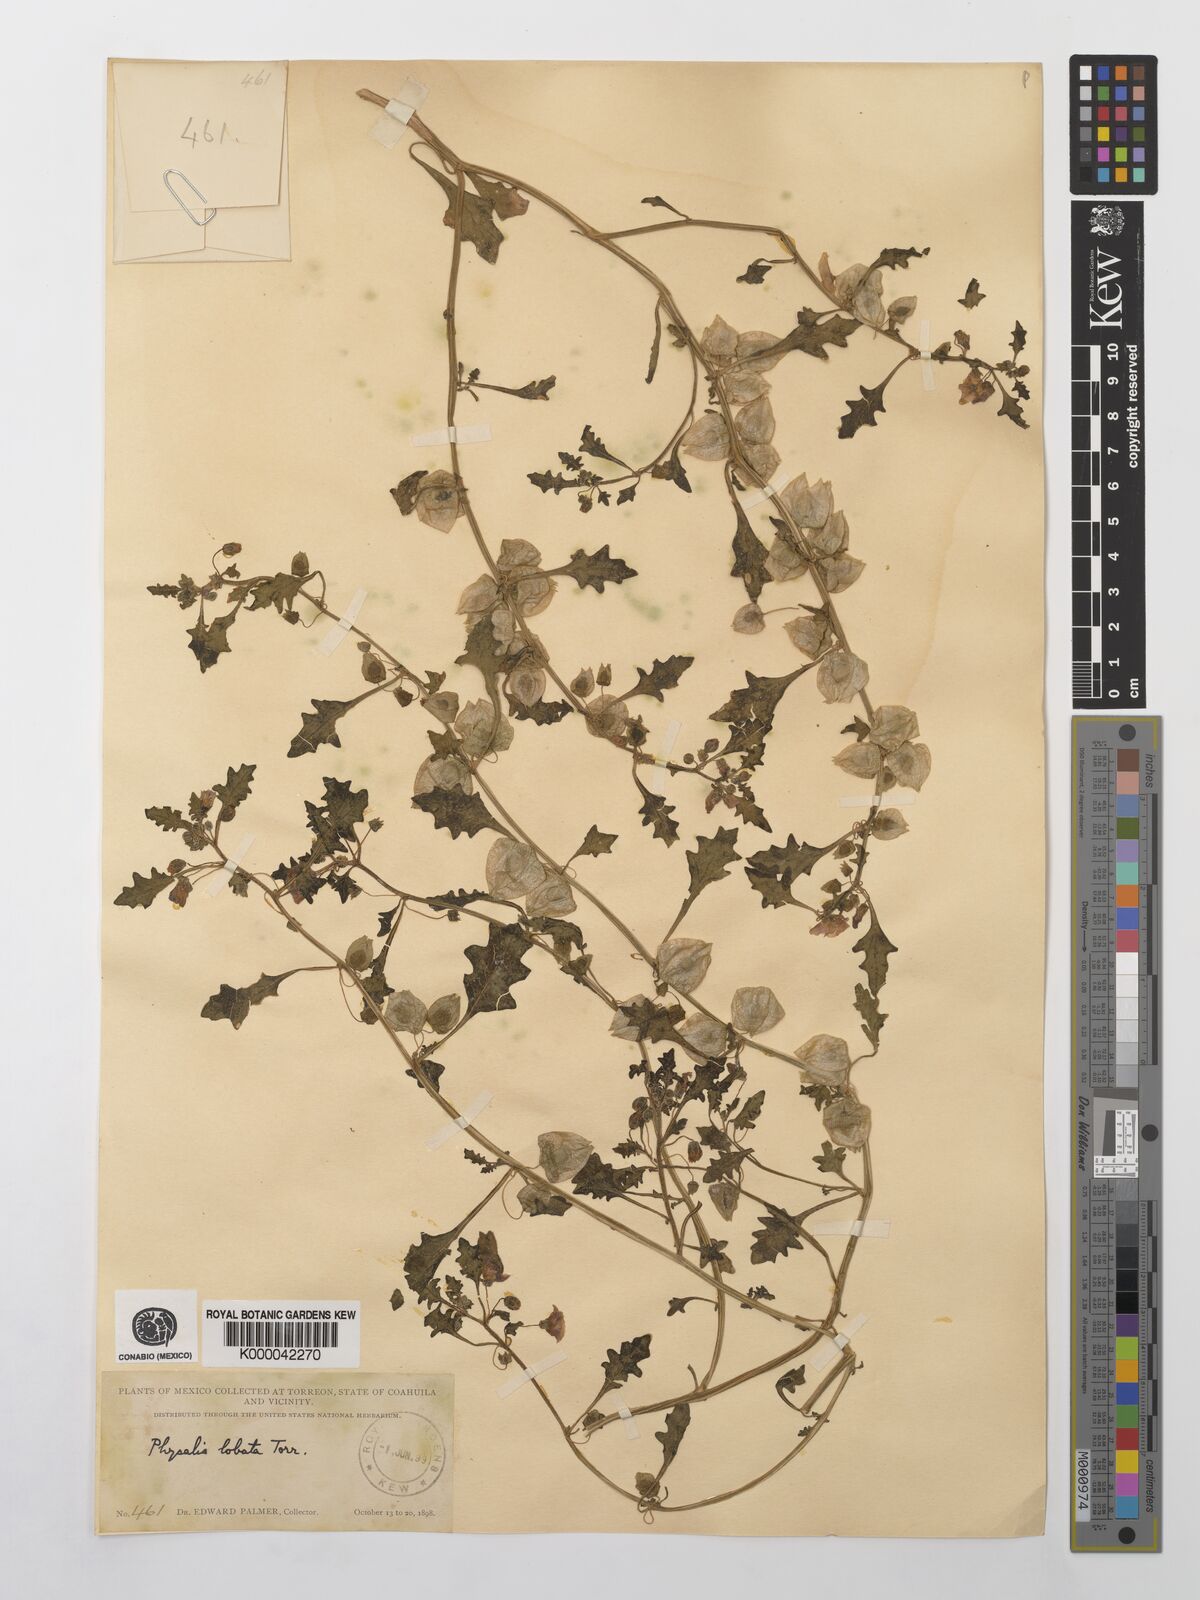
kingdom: Plantae
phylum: Tracheophyta
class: Magnoliopsida
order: Solanales
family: Solanaceae
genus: Quincula
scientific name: Quincula lobata
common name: Purple-ground-cherry
